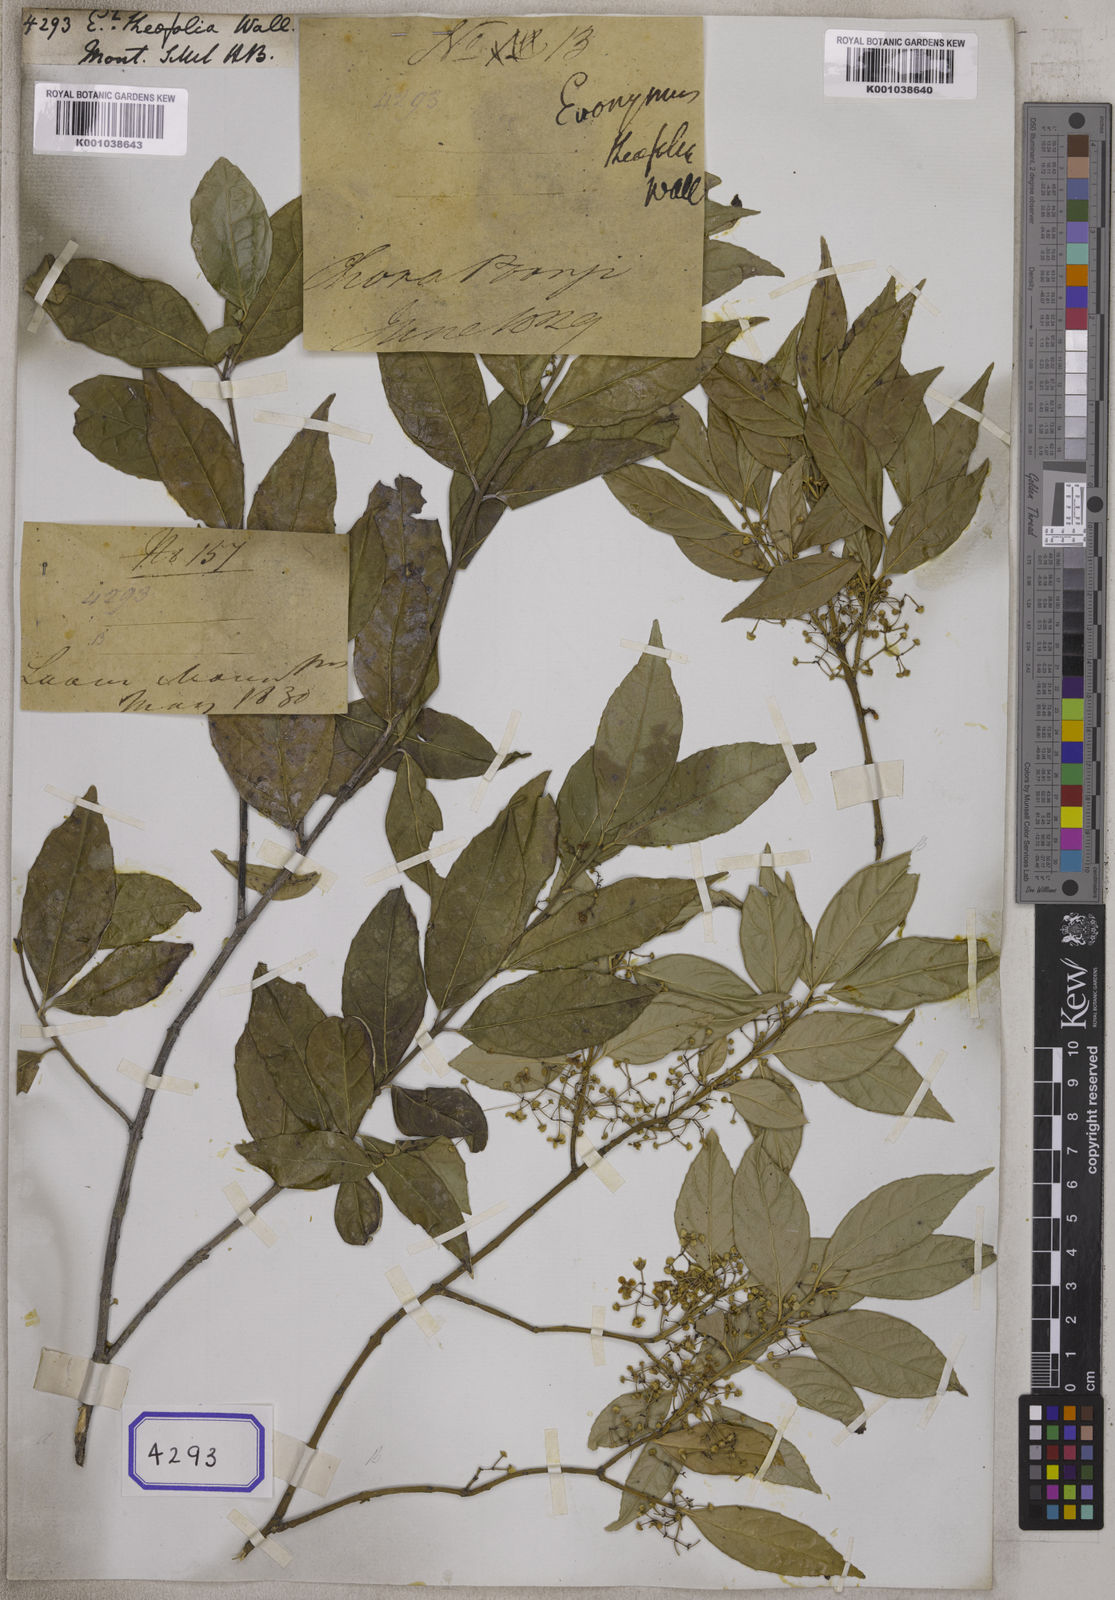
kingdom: Plantae
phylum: Tracheophyta
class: Magnoliopsida
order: Celastrales
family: Celastraceae
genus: Euonymus
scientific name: Euonymus
